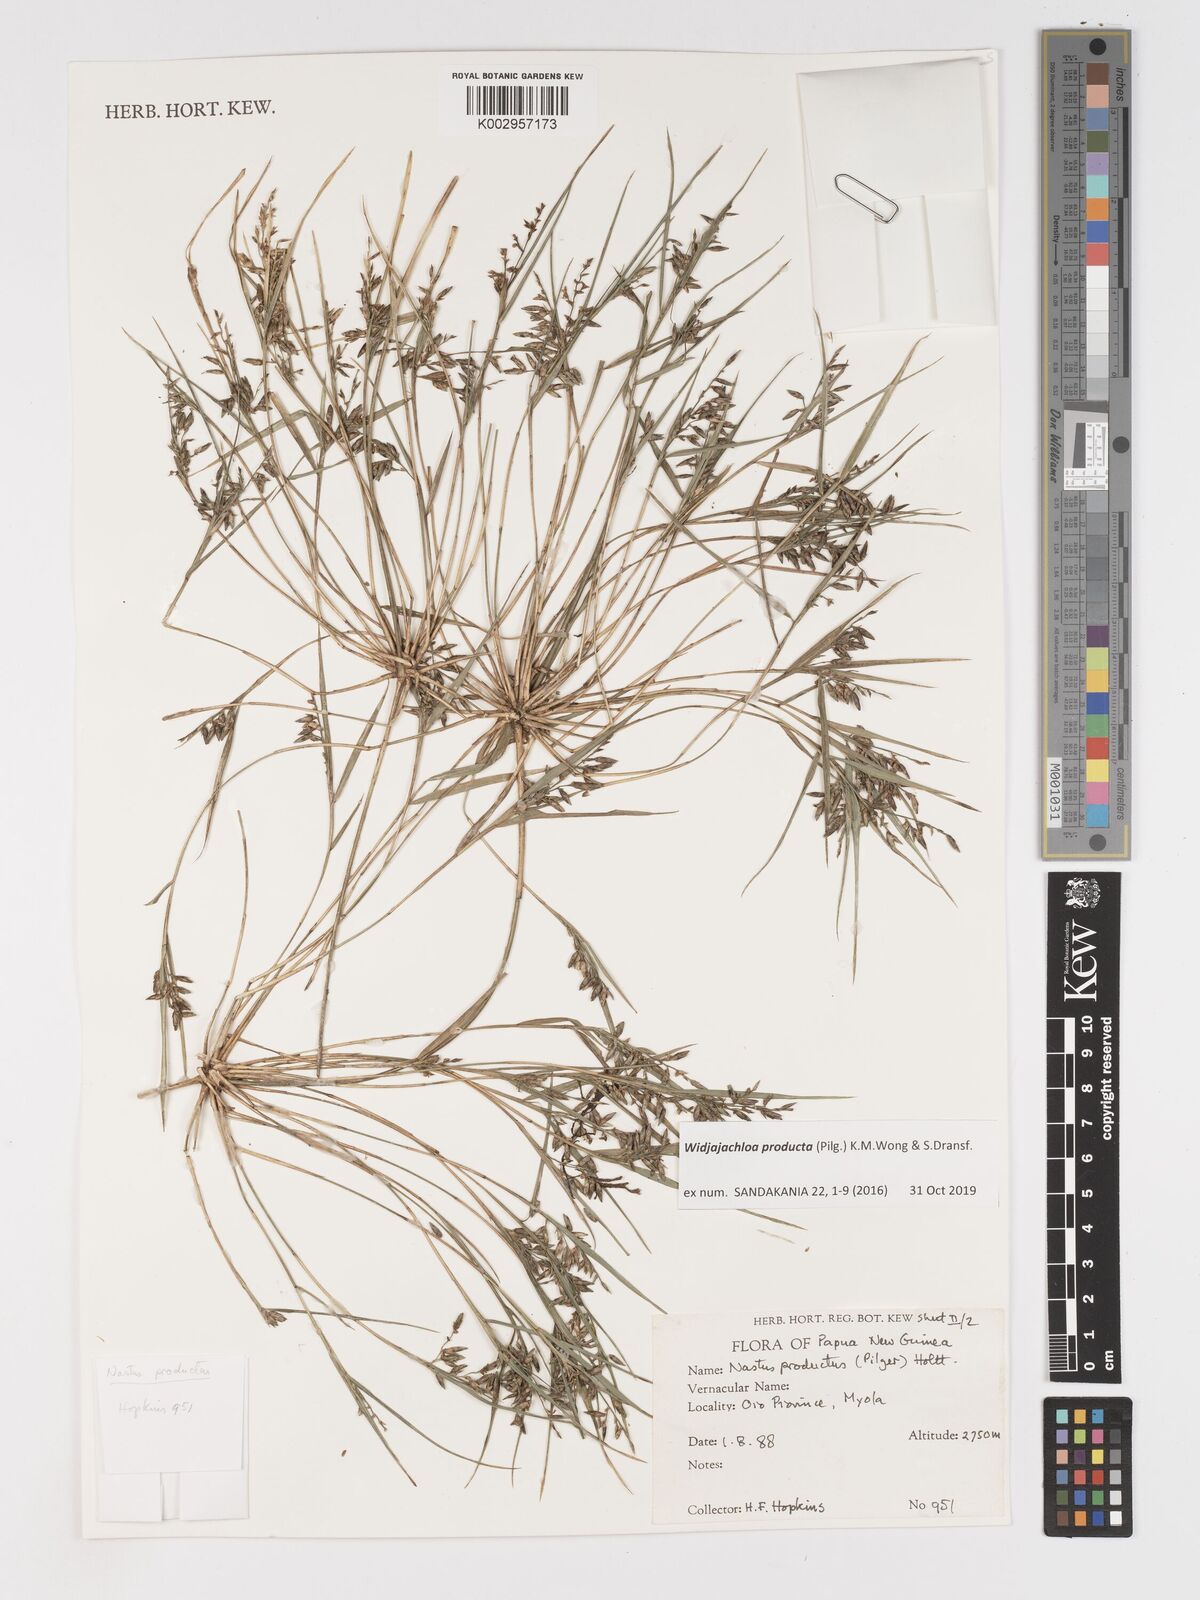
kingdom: Plantae
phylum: Tracheophyta
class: Liliopsida
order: Poales
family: Poaceae
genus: Widjajachloa
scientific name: Widjajachloa producta
